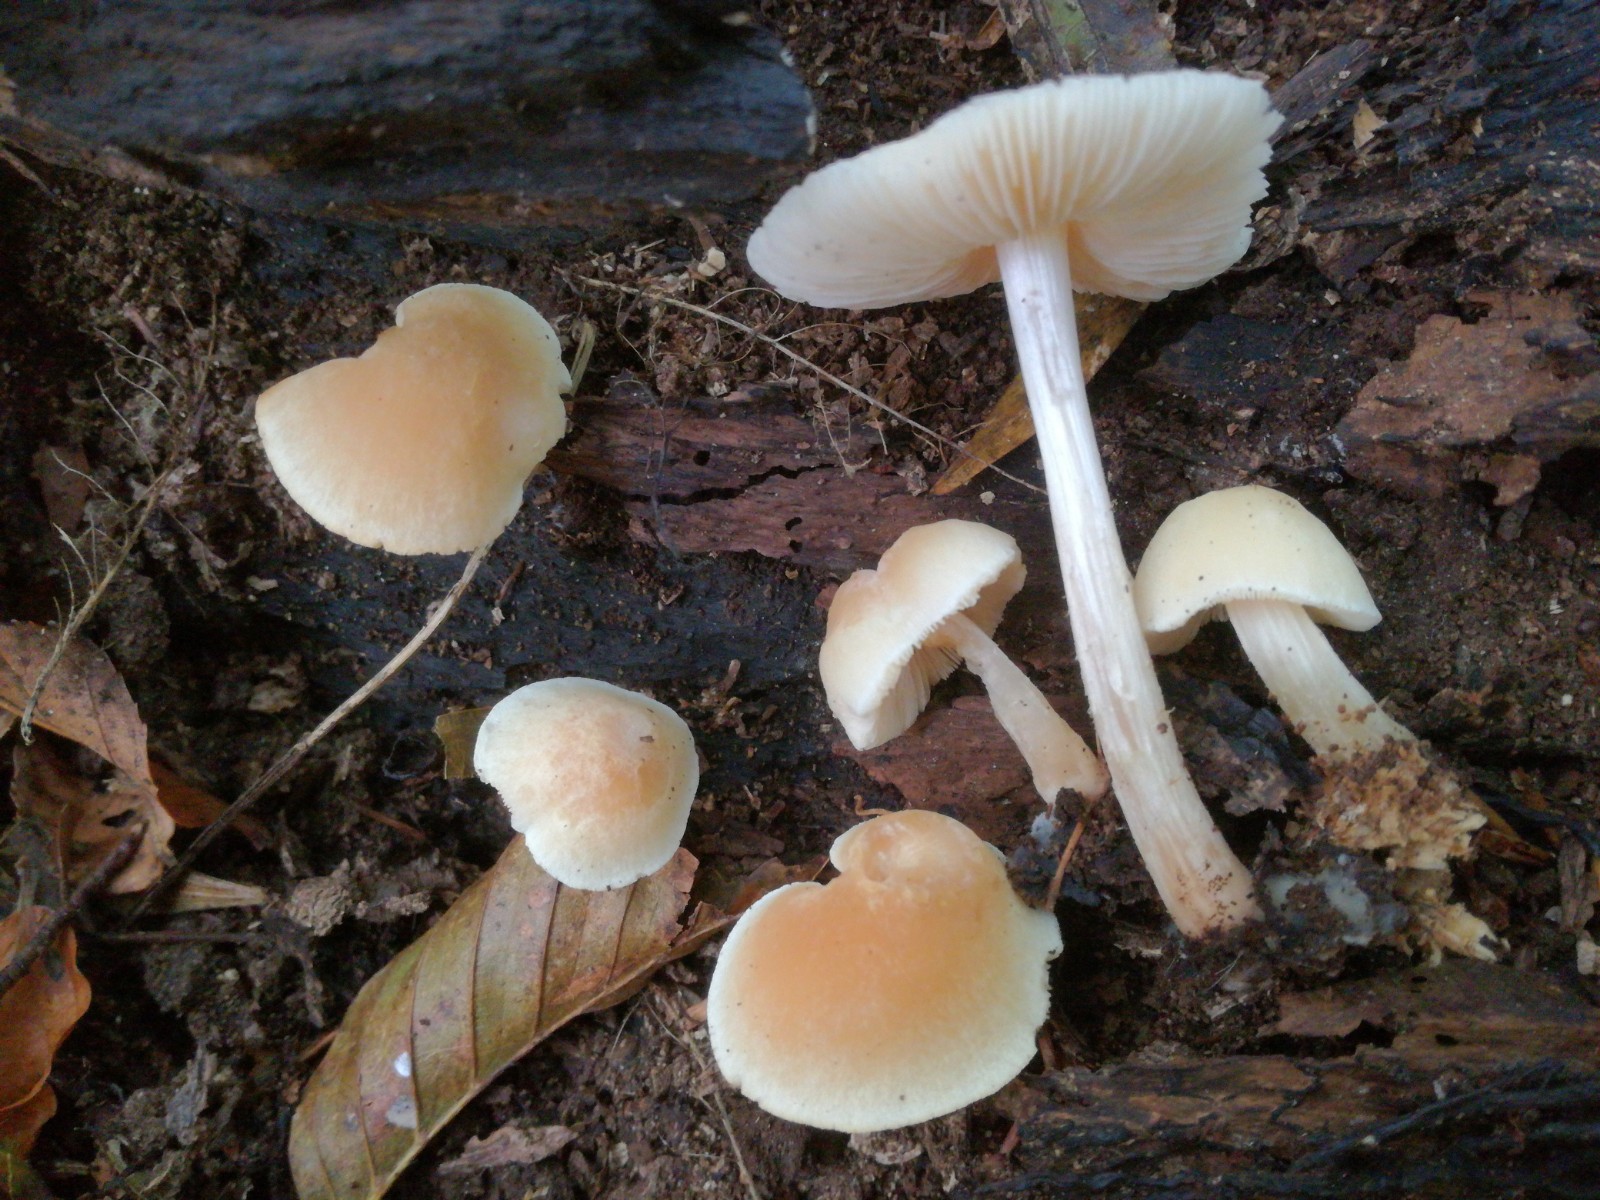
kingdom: Fungi
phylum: Basidiomycota
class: Agaricomycetes
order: Agaricales
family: Pluteaceae
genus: Pluteus
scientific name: Pluteus
